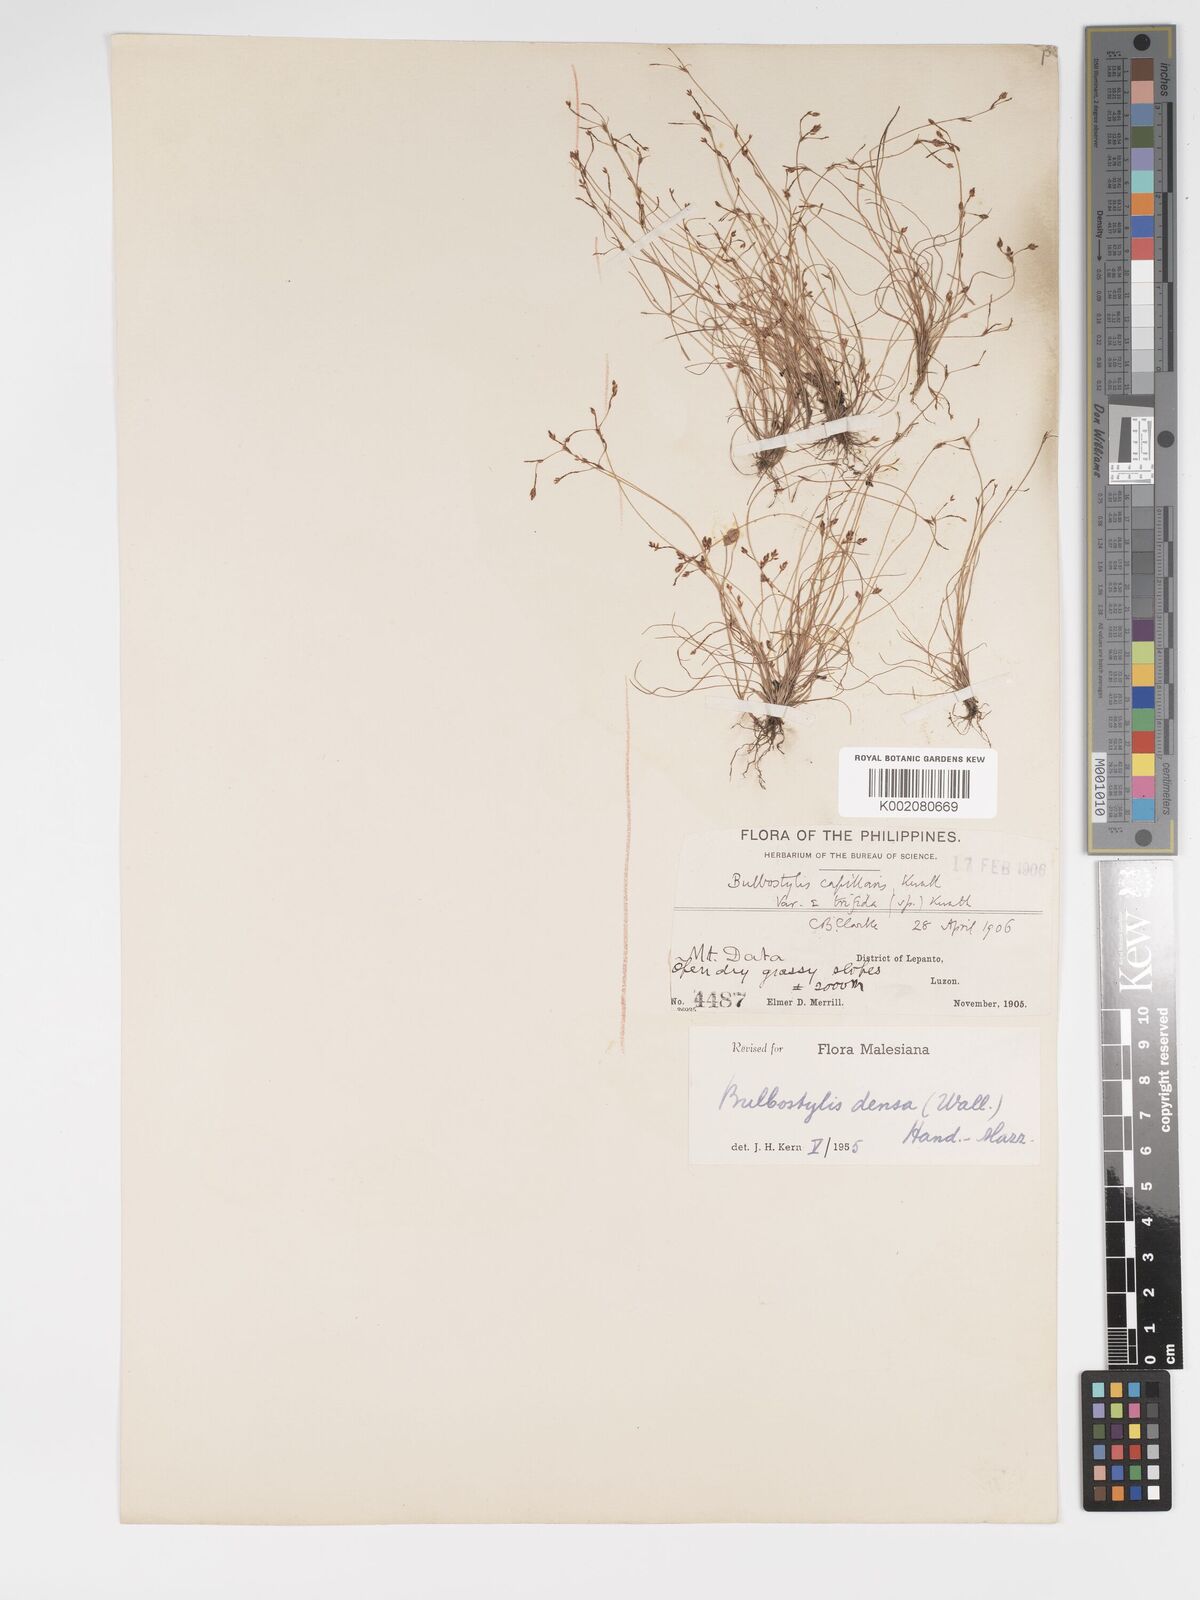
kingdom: Plantae
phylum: Tracheophyta
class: Liliopsida
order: Poales
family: Cyperaceae
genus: Bulbostylis
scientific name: Bulbostylis densa
